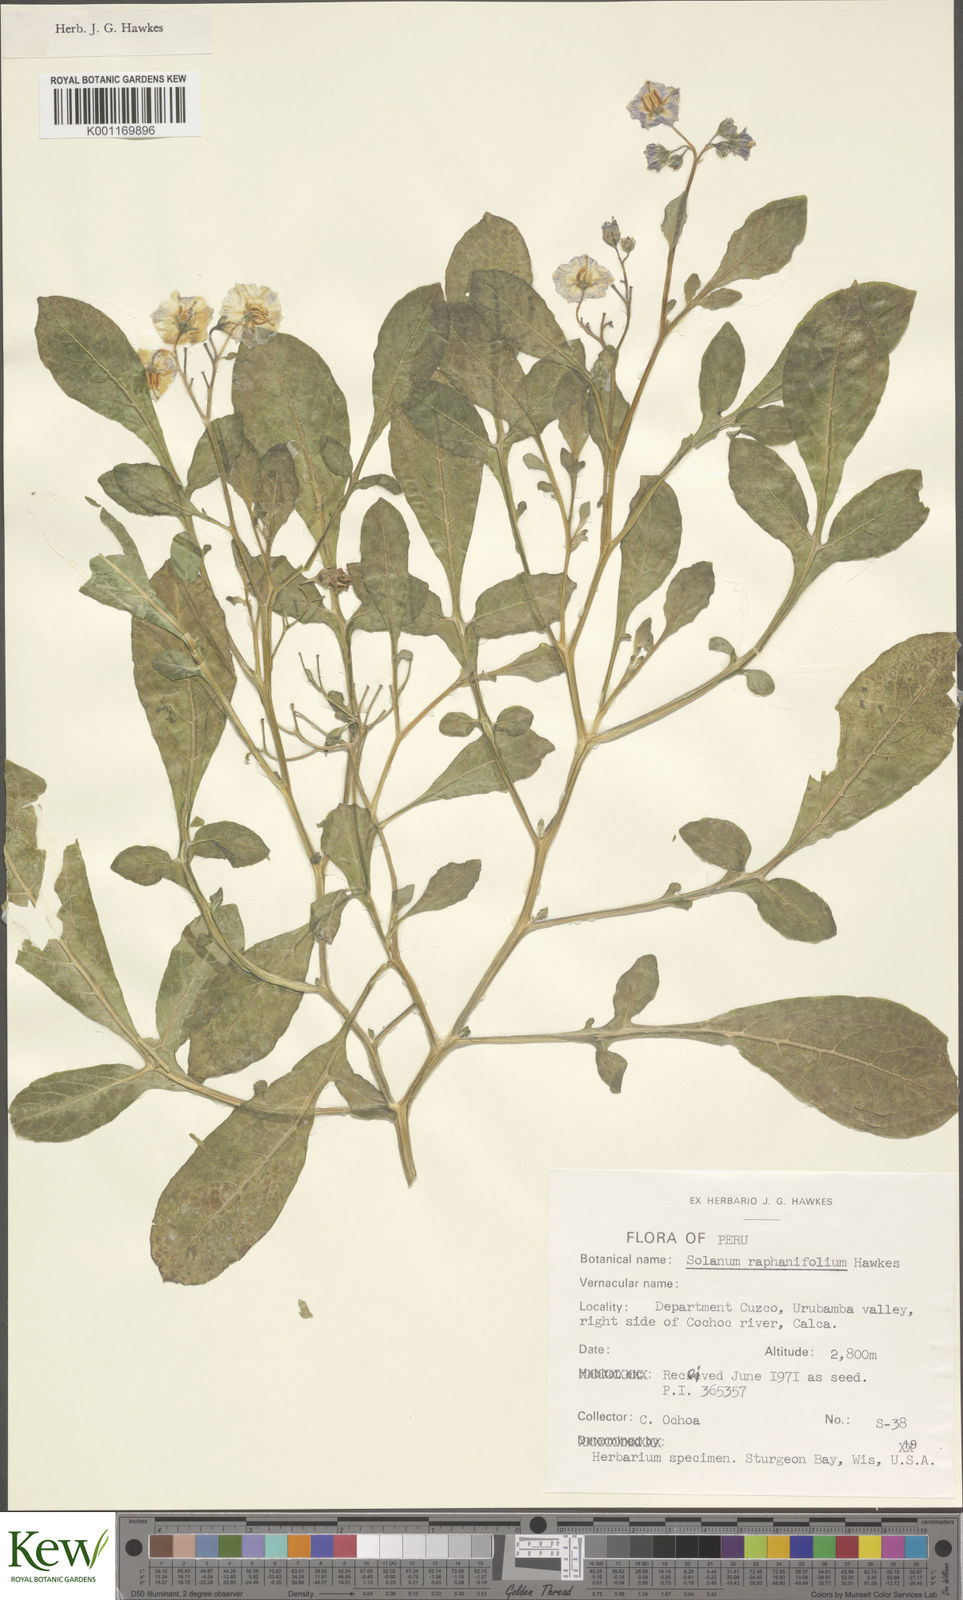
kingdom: Plantae
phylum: Tracheophyta
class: Magnoliopsida
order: Solanales
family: Solanaceae
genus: Solanum
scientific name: Solanum
